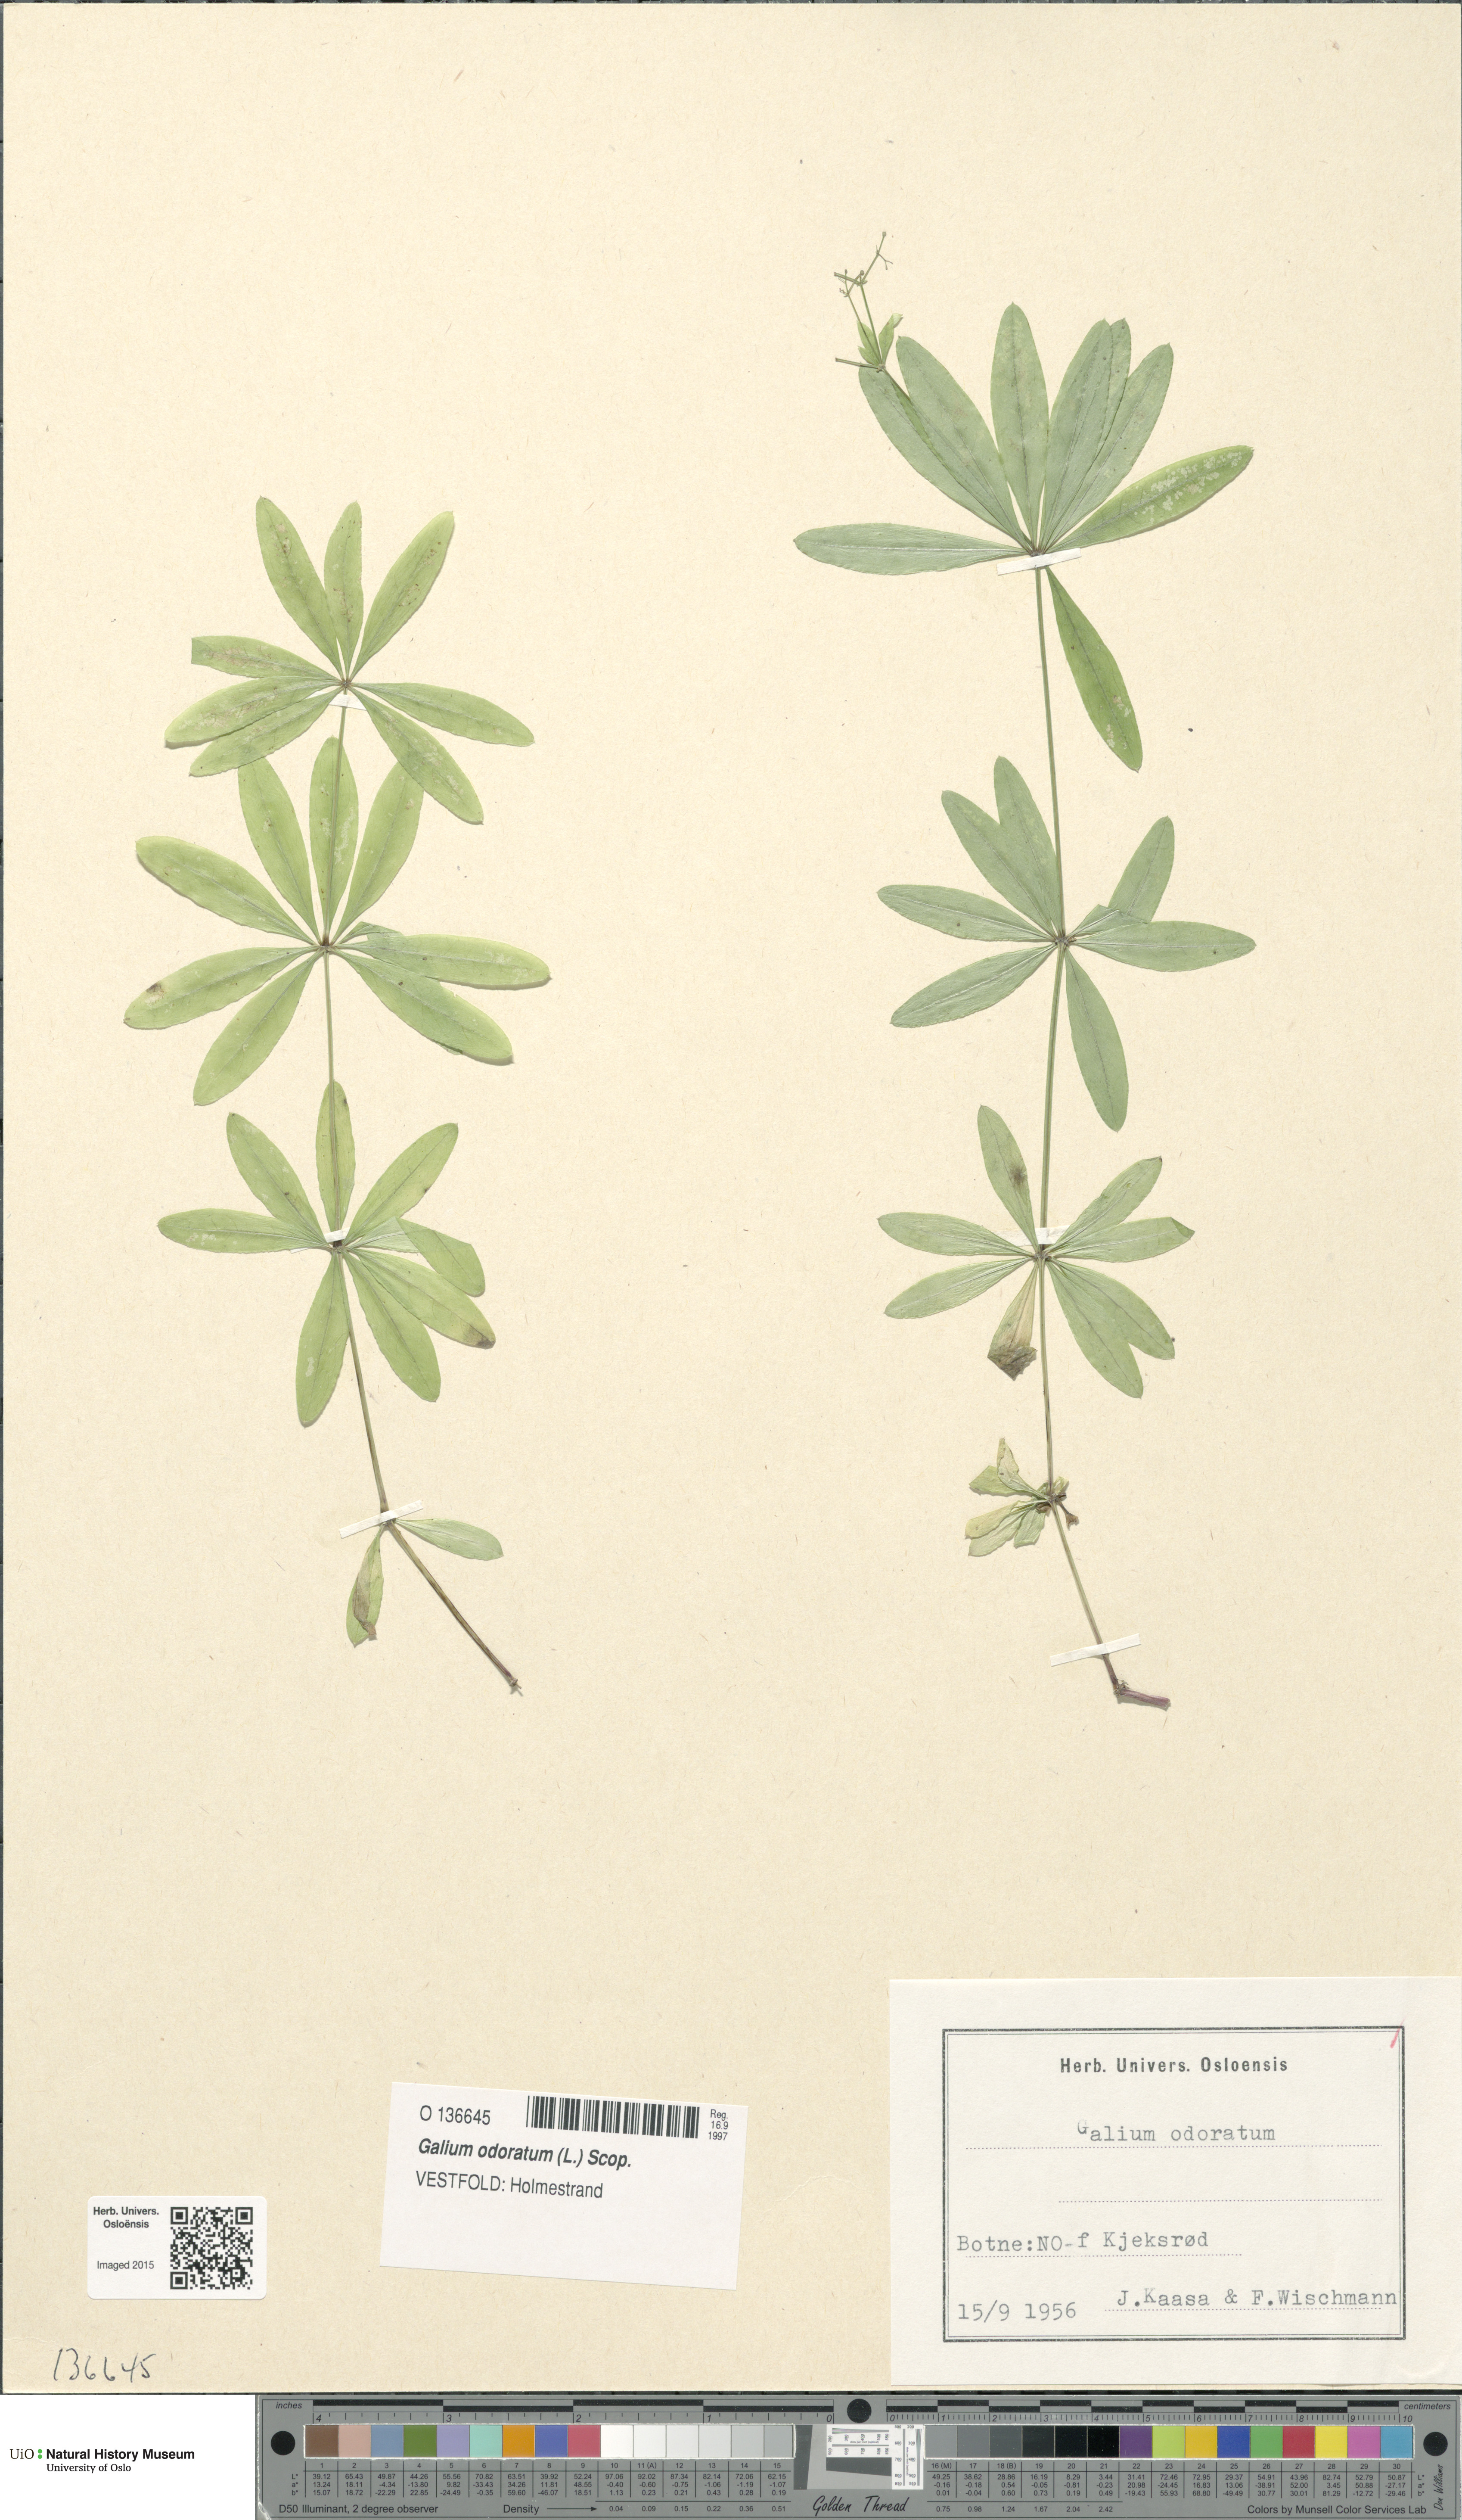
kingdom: Plantae
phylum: Tracheophyta
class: Magnoliopsida
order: Gentianales
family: Rubiaceae
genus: Galium
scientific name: Galium odoratum
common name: Sweet woodruff
